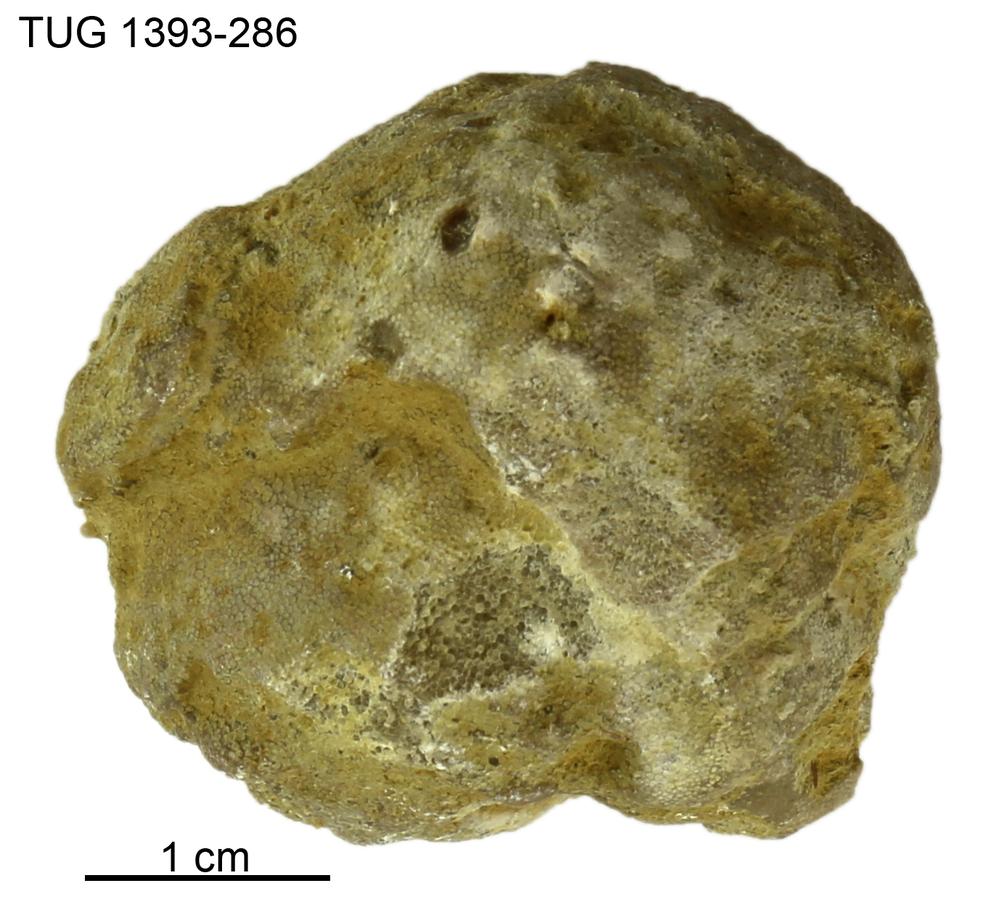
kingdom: Animalia
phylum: Bryozoa
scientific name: Bryozoa
